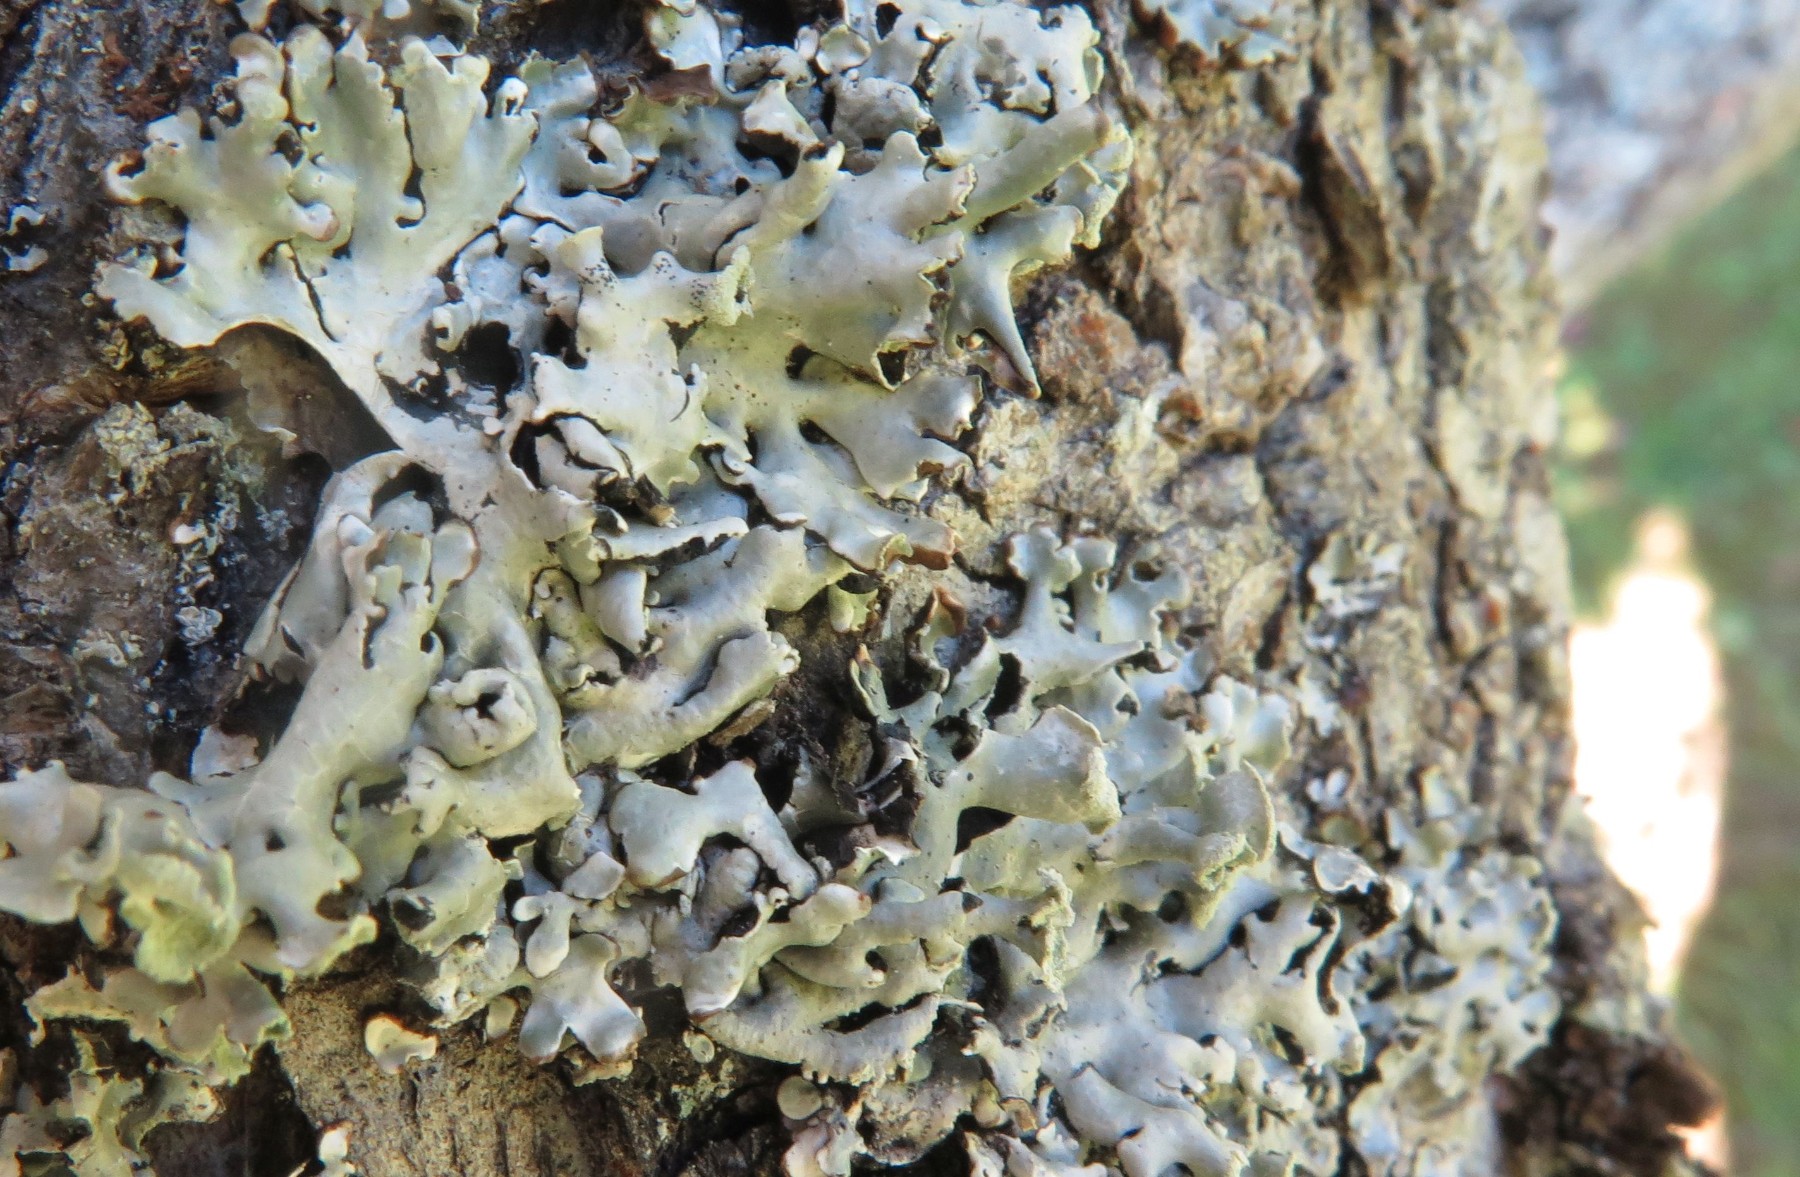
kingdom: Fungi
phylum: Ascomycota
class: Lecanoromycetes
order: Lecanorales
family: Parmeliaceae
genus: Hypogymnia
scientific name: Hypogymnia physodes
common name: almindelig kvistlav
